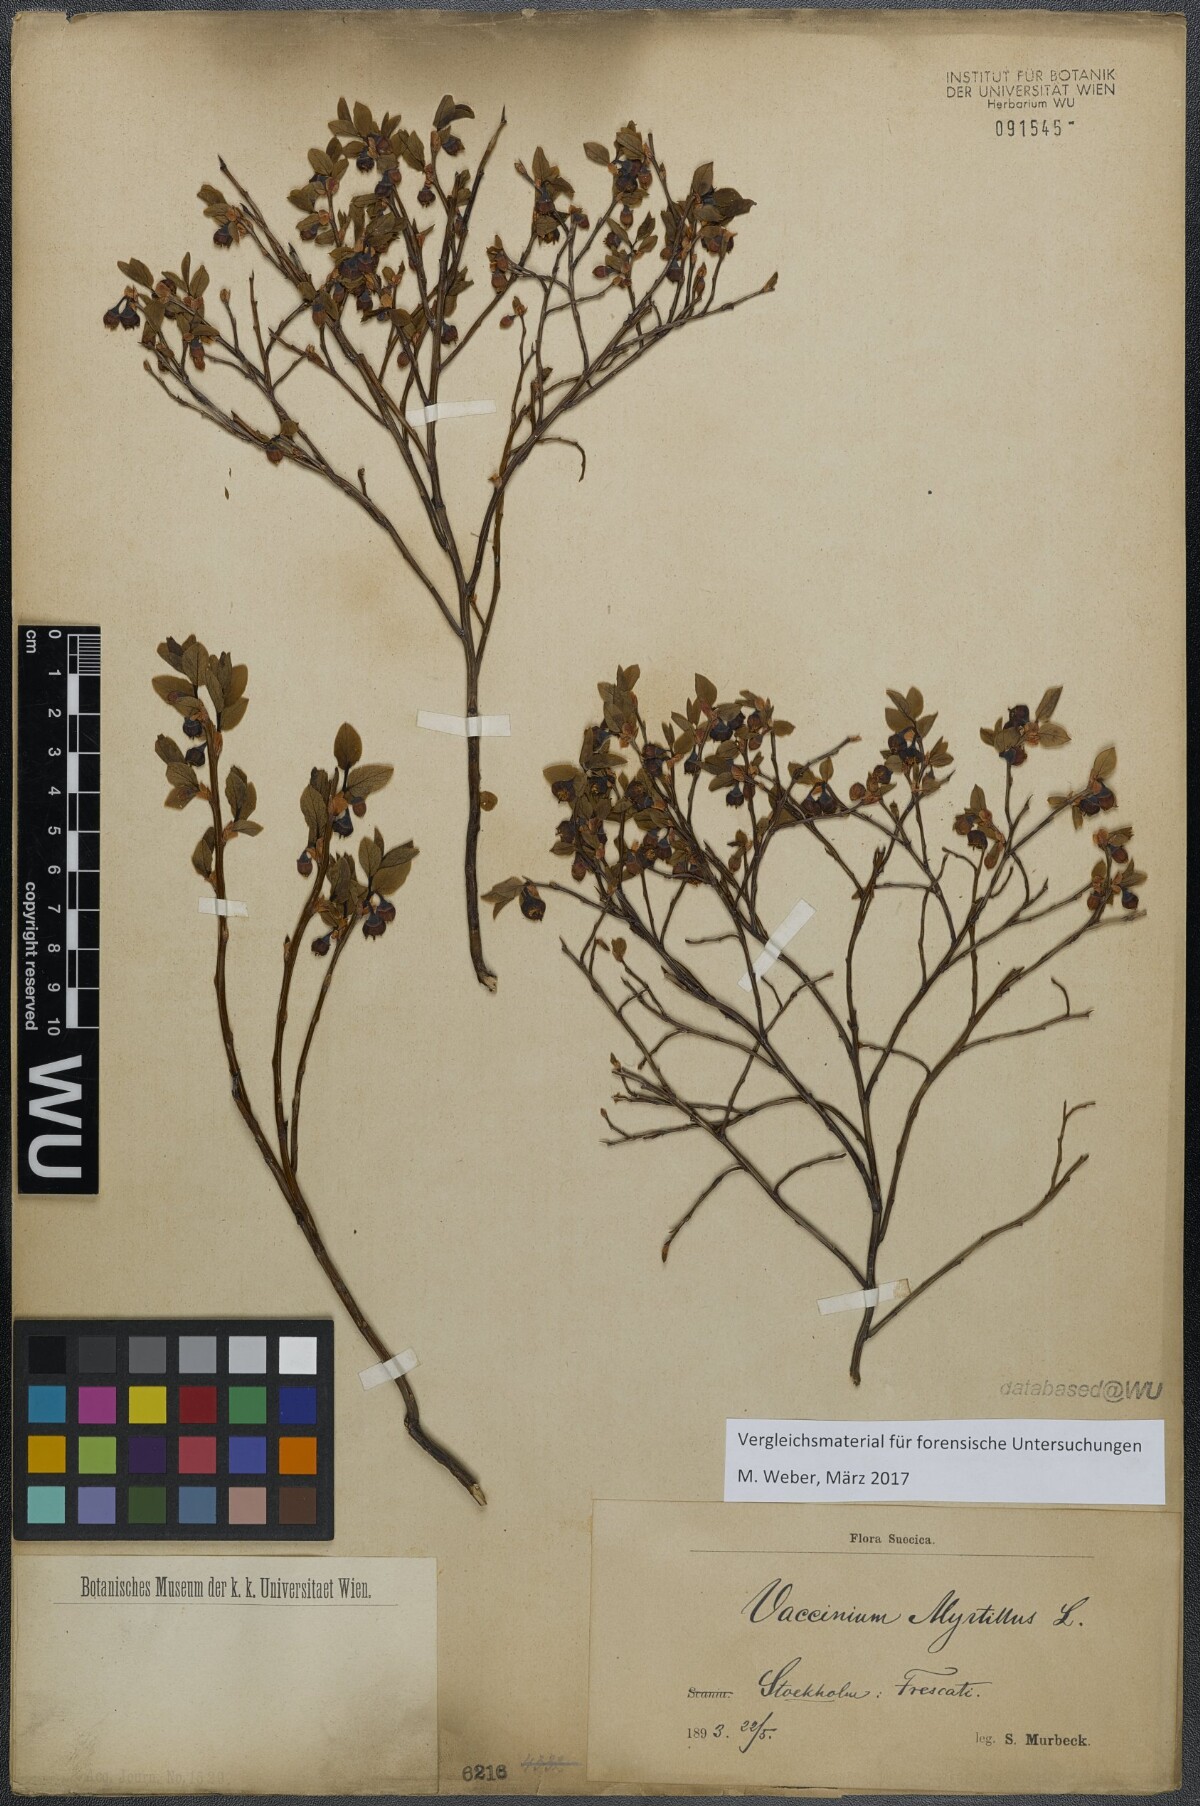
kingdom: Plantae
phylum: Tracheophyta
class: Magnoliopsida
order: Ericales
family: Ericaceae
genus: Vaccinium
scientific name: Vaccinium myrtillus
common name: Bilberry
